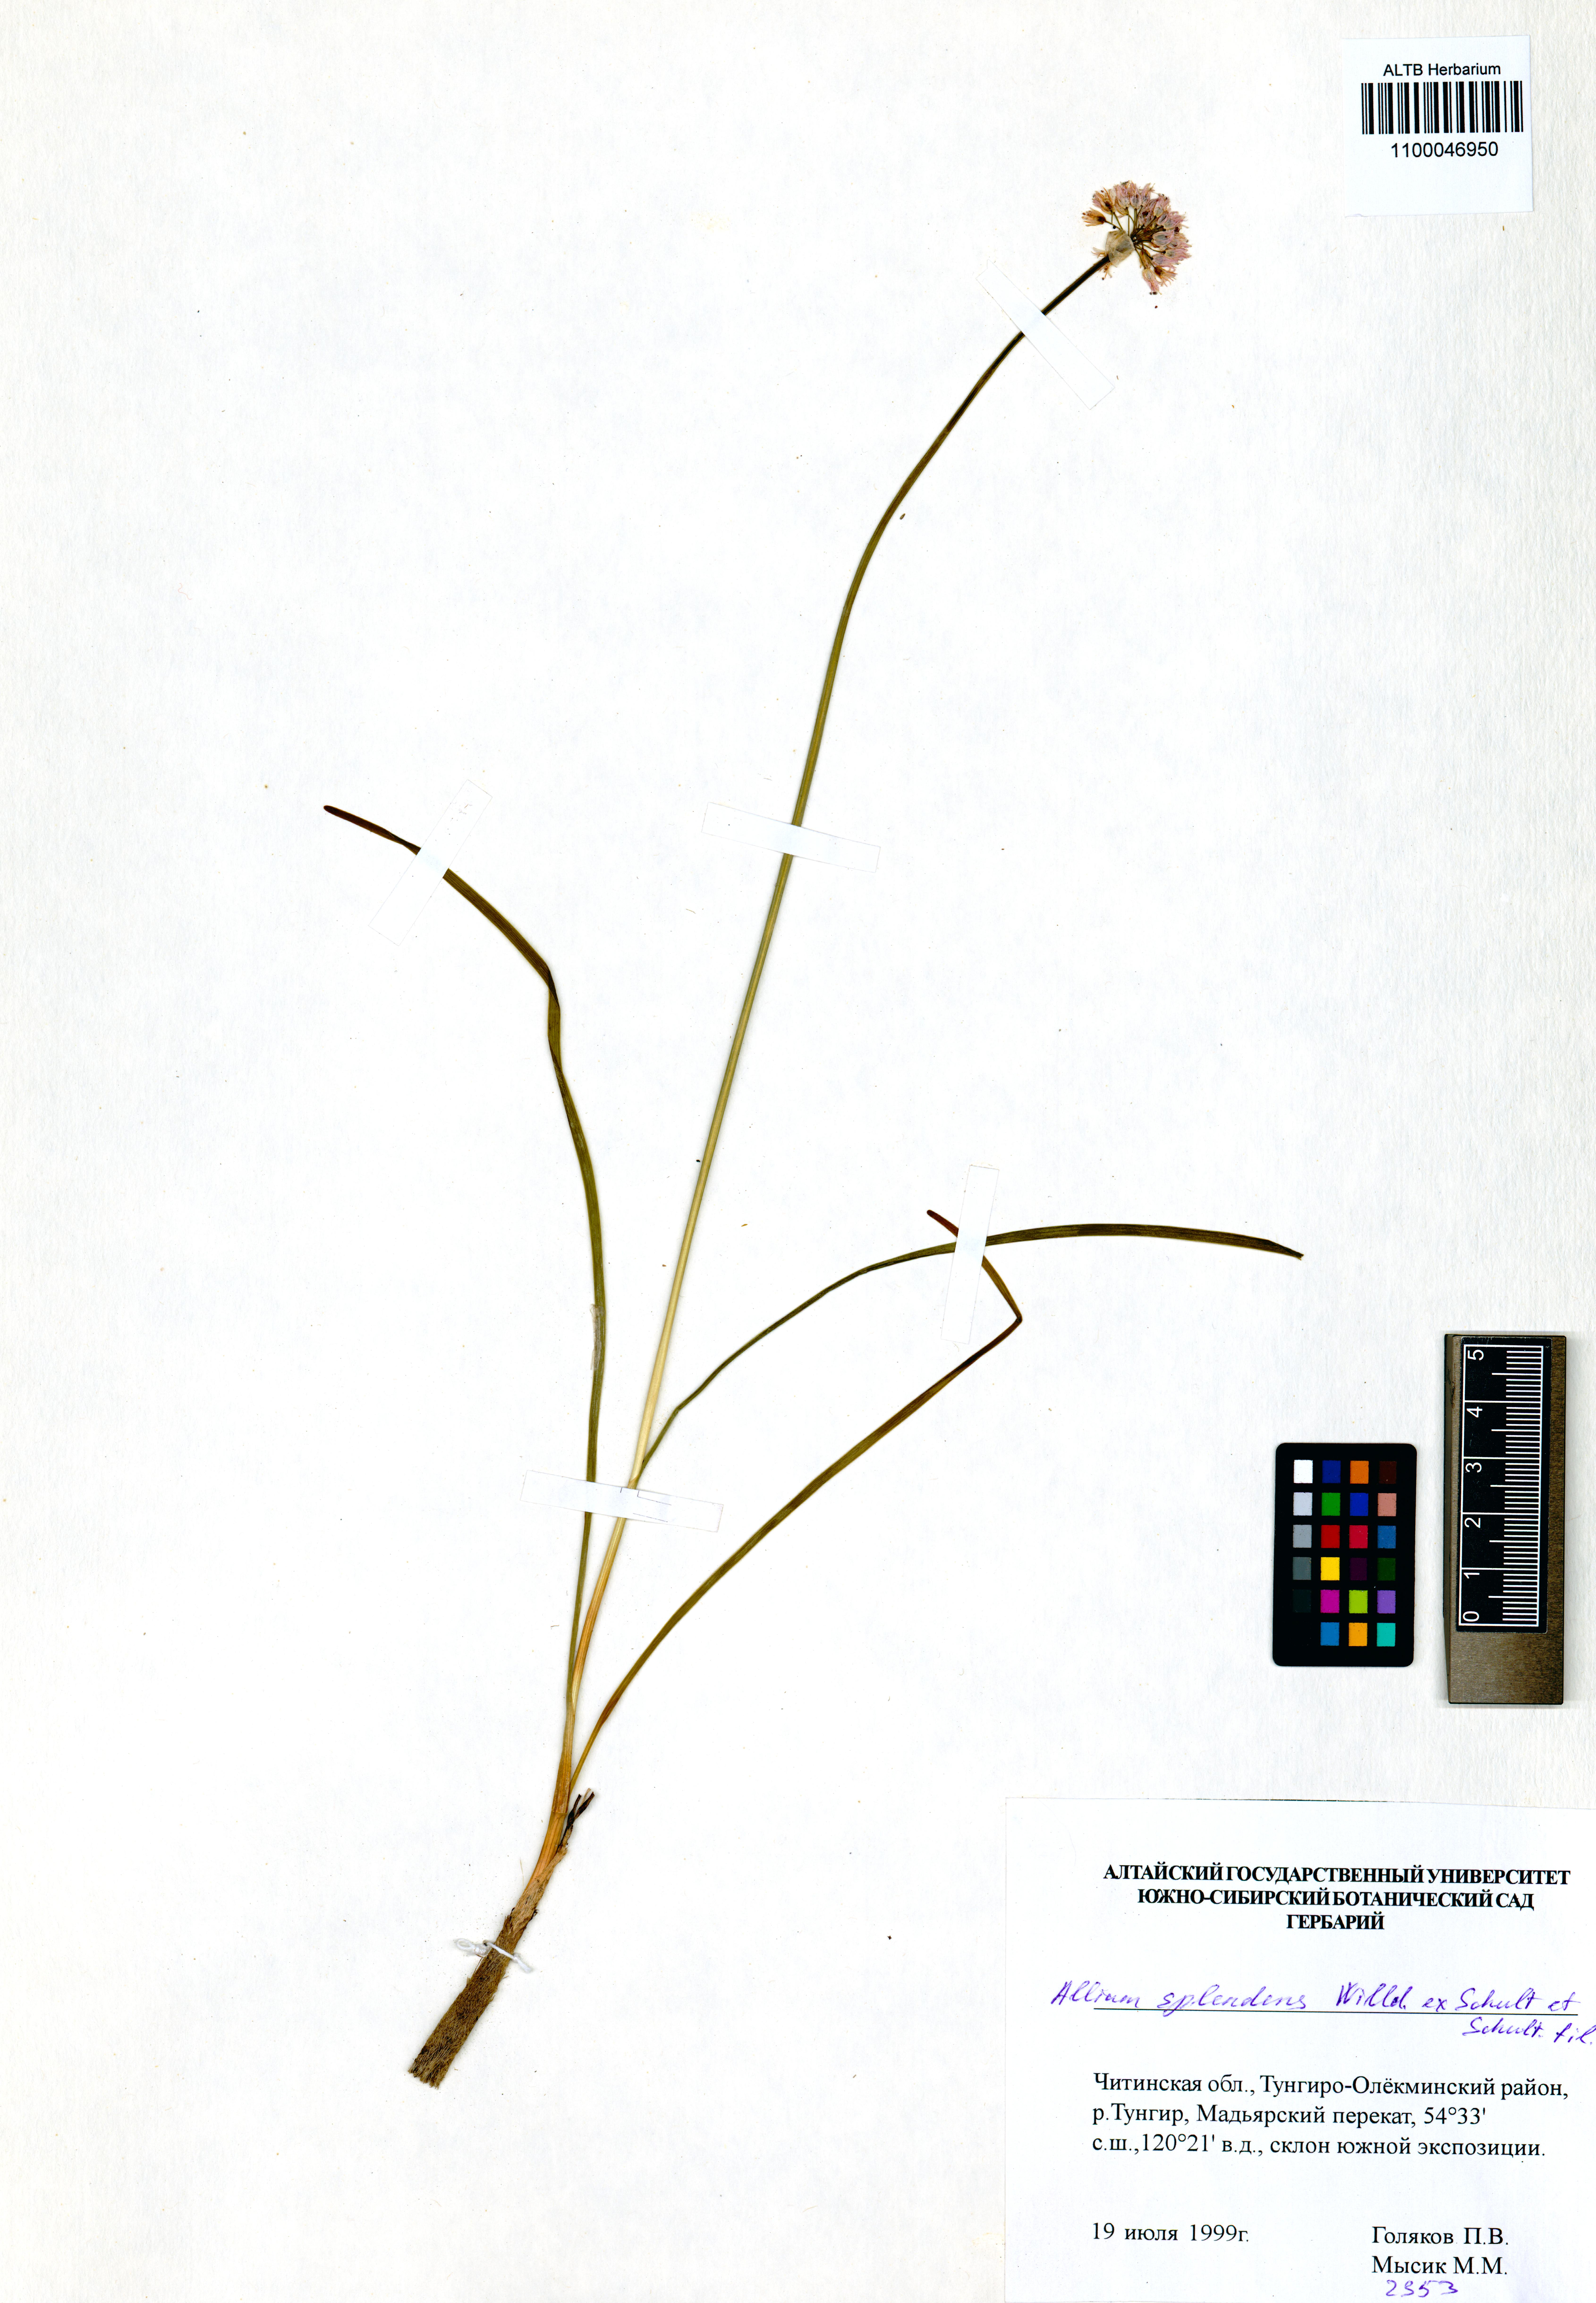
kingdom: Plantae
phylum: Tracheophyta
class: Liliopsida
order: Asparagales
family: Amaryllidaceae
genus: Allium
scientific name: Allium splendens
